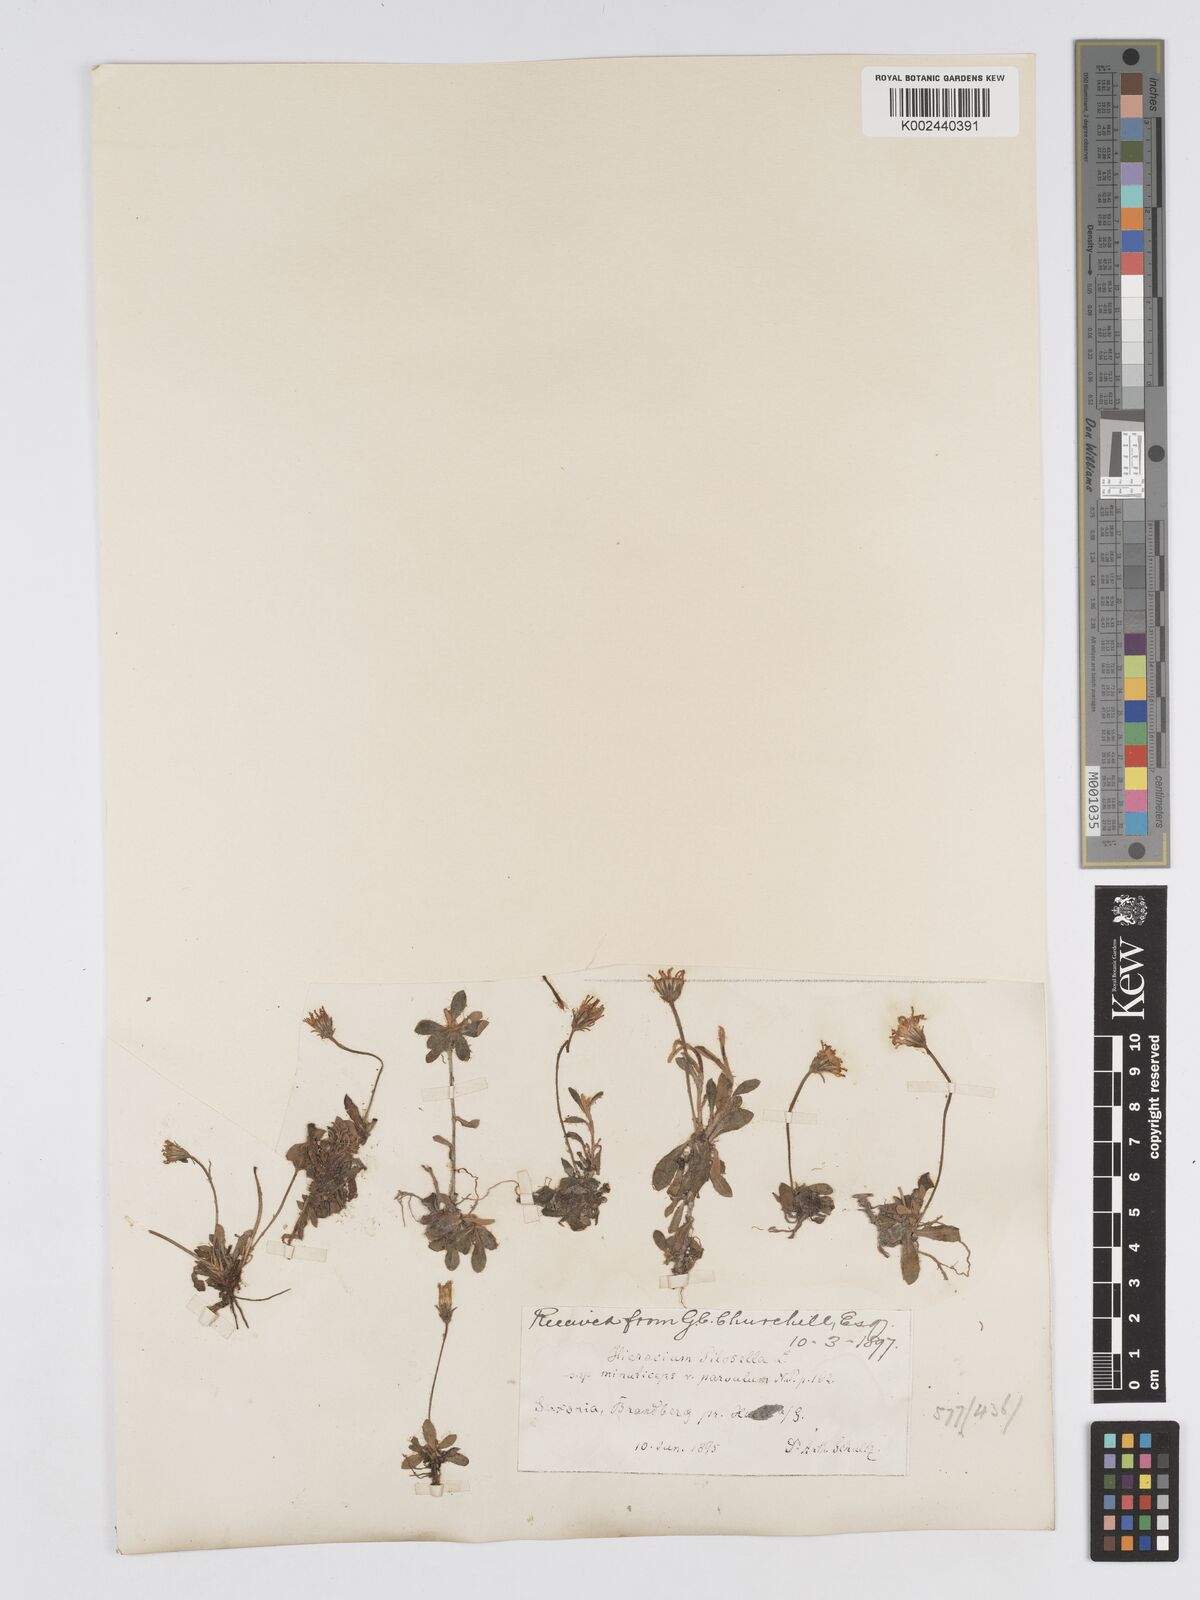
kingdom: Plantae
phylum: Tracheophyta
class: Magnoliopsida
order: Asterales
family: Asteraceae
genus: Pilosella
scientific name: Pilosella officinarum
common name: Mouse-ear hawkweed
